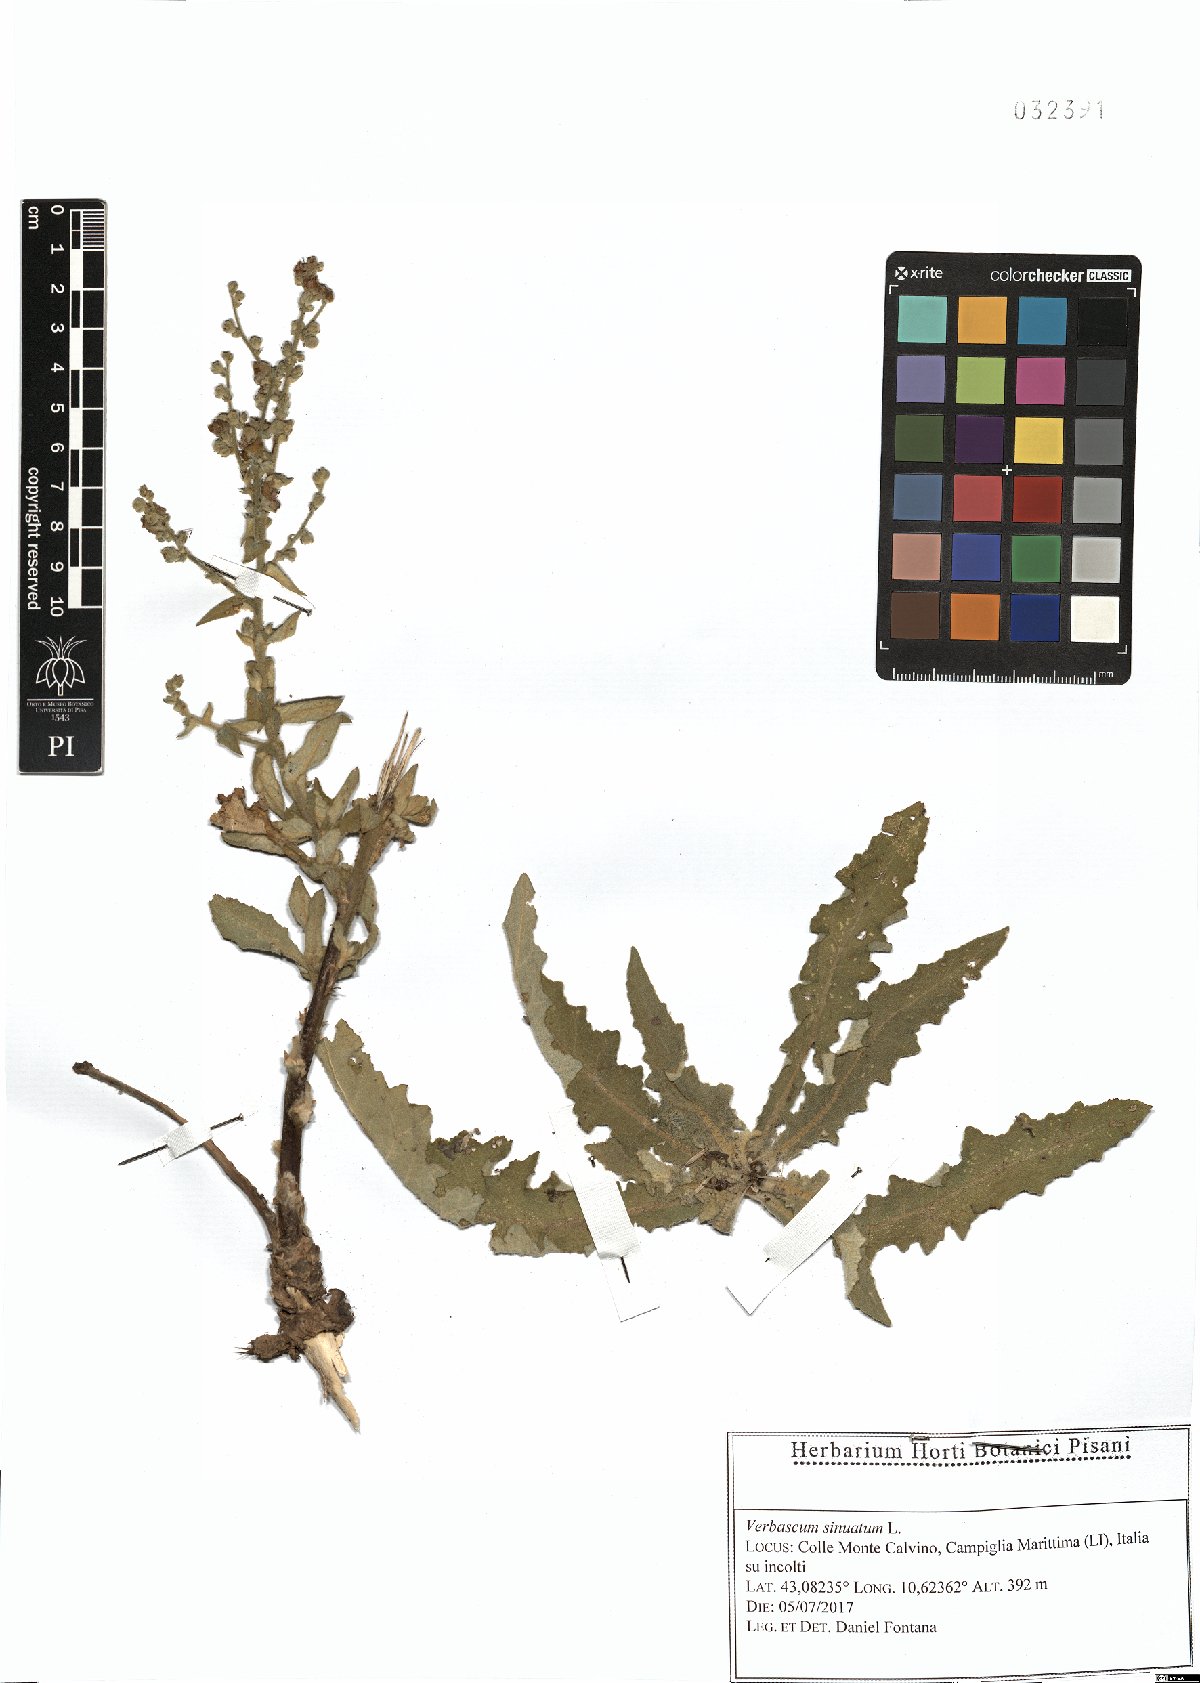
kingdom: Plantae
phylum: Tracheophyta
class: Magnoliopsida
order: Lamiales
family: Scrophulariaceae
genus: Verbascum
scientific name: Verbascum sinuatum
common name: Wavyleaf mullein
